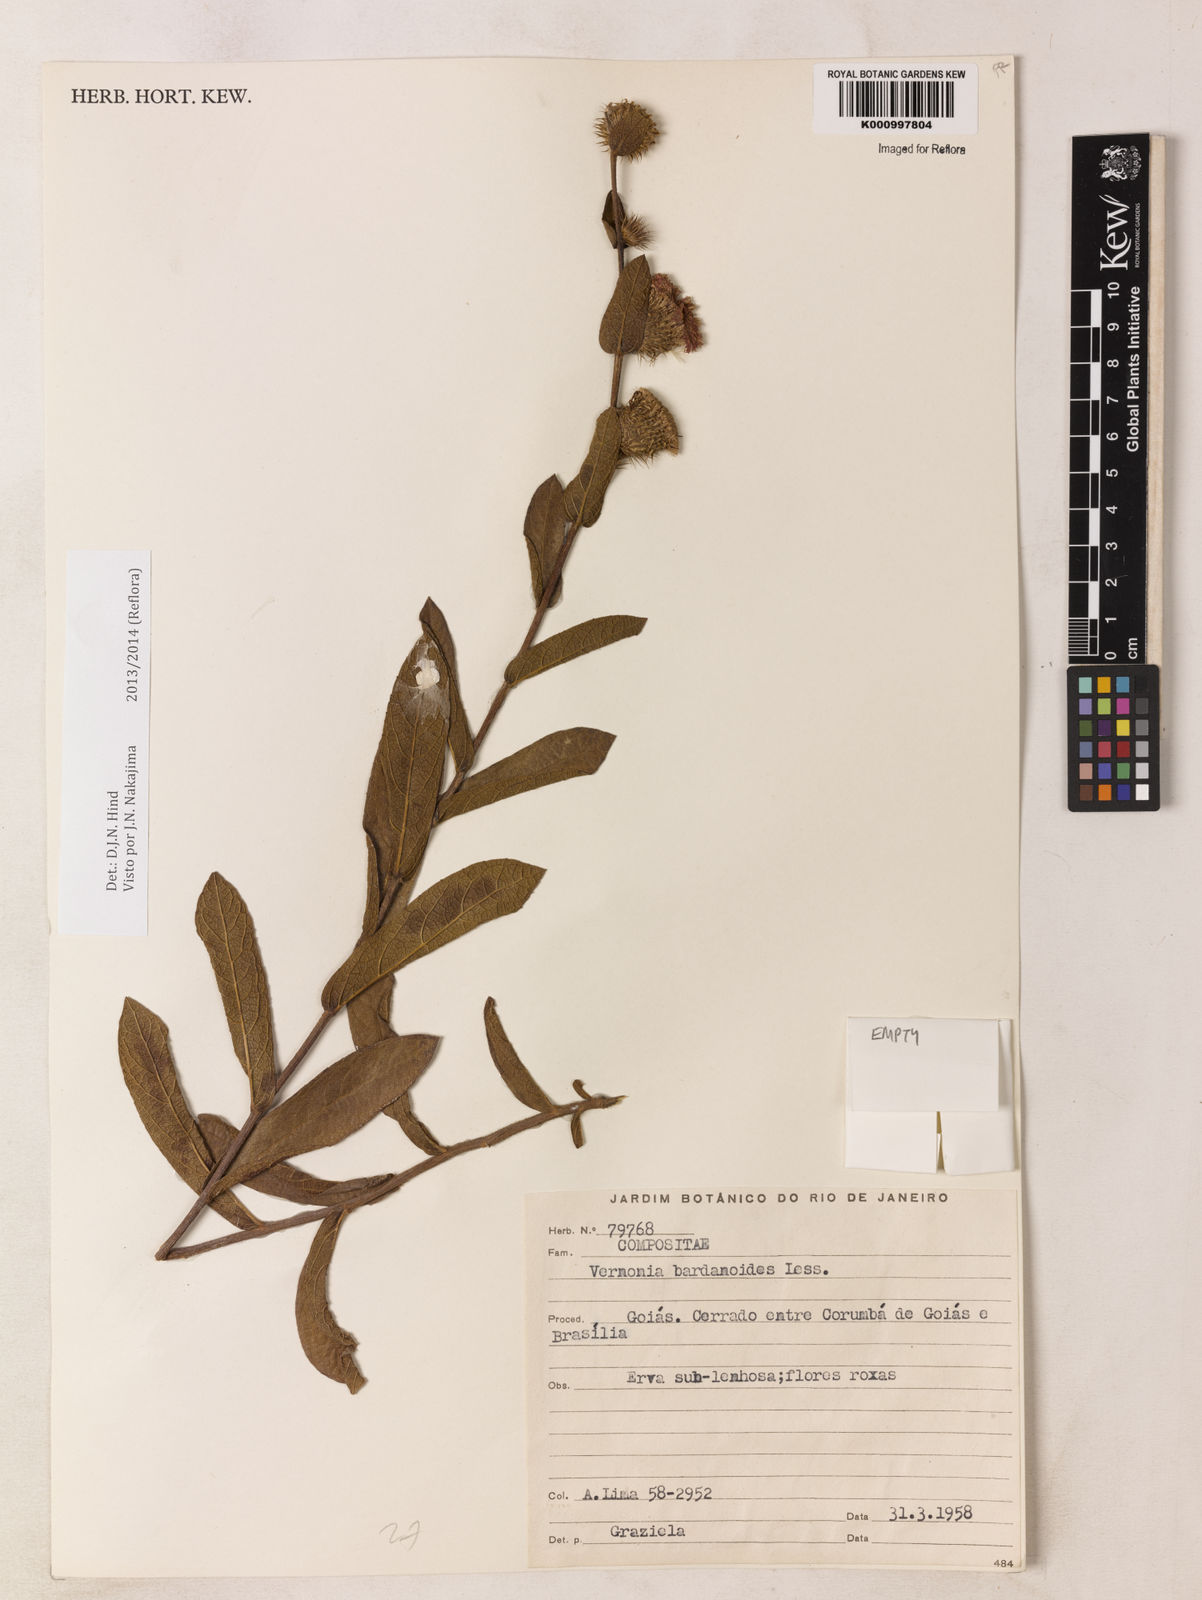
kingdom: Plantae
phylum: Tracheophyta
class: Magnoliopsida
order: Asterales
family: Asteraceae
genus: Lessingianthus
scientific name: Lessingianthus bardanioides
